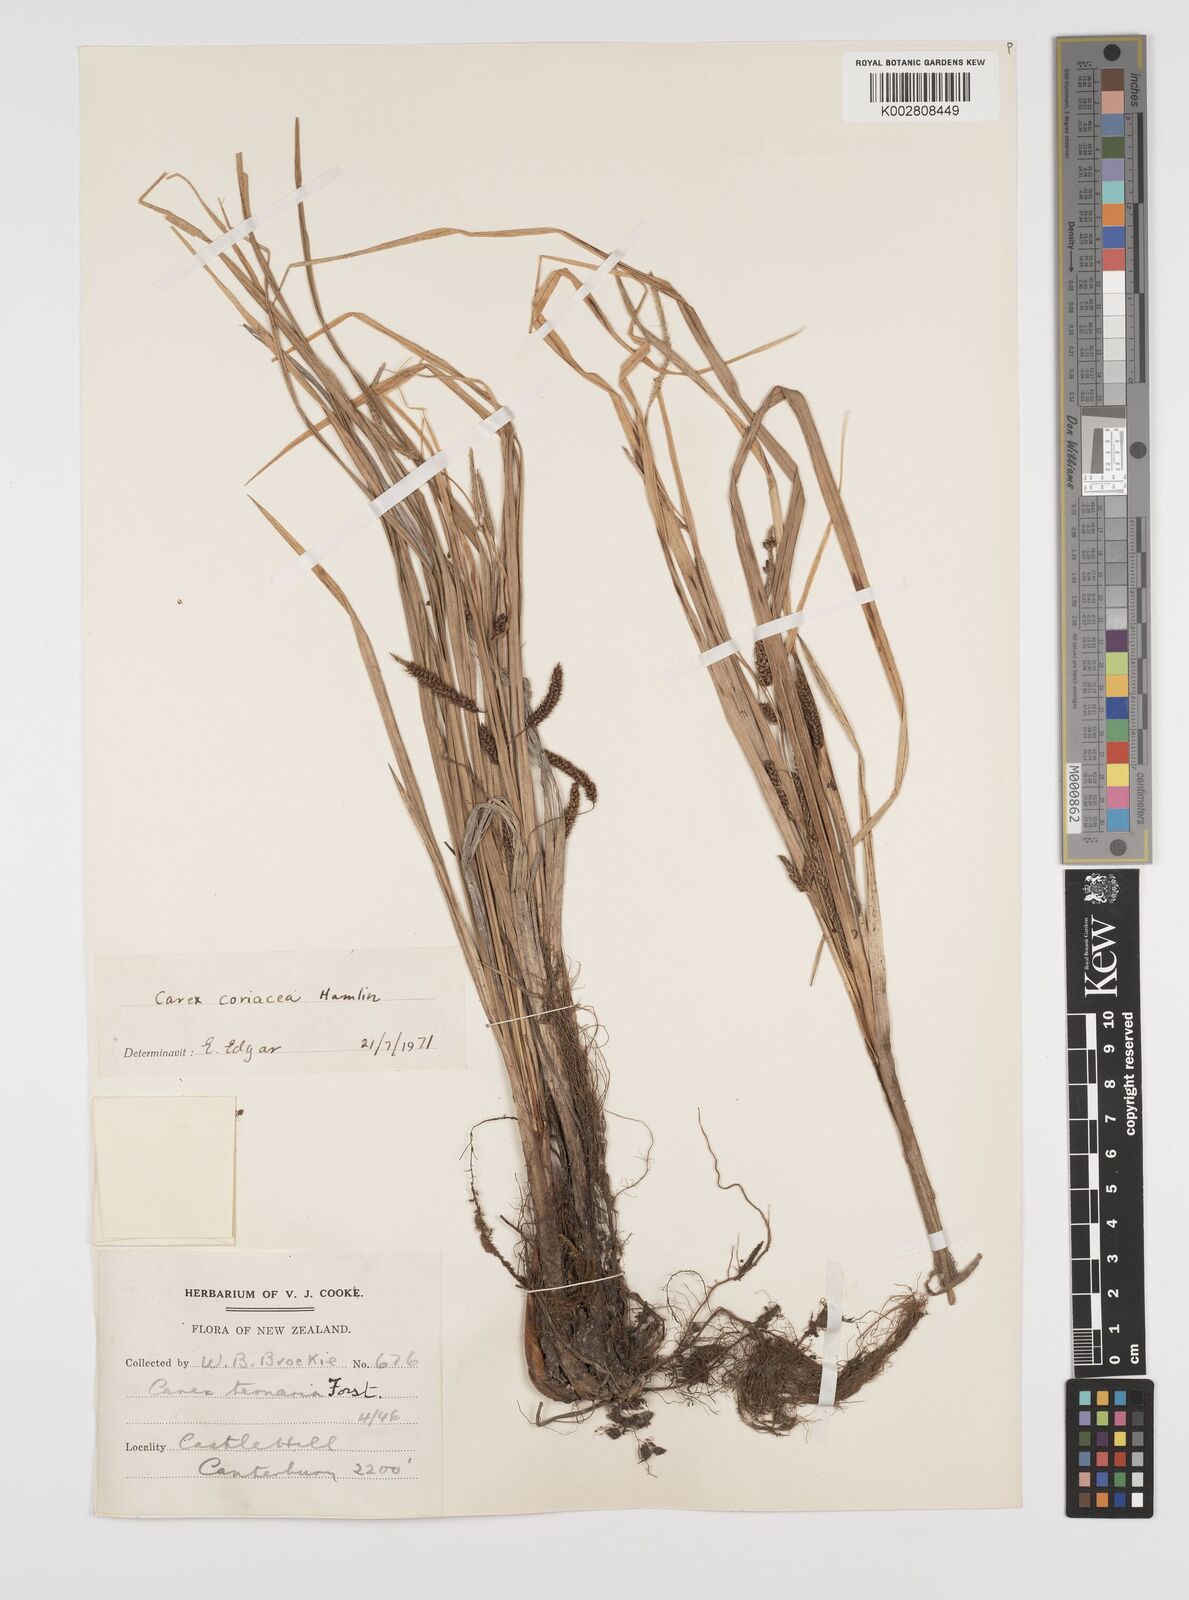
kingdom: Plantae
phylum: Tracheophyta
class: Liliopsida
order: Poales
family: Cyperaceae
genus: Carex
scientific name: Carex coriacea
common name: Rautahi
